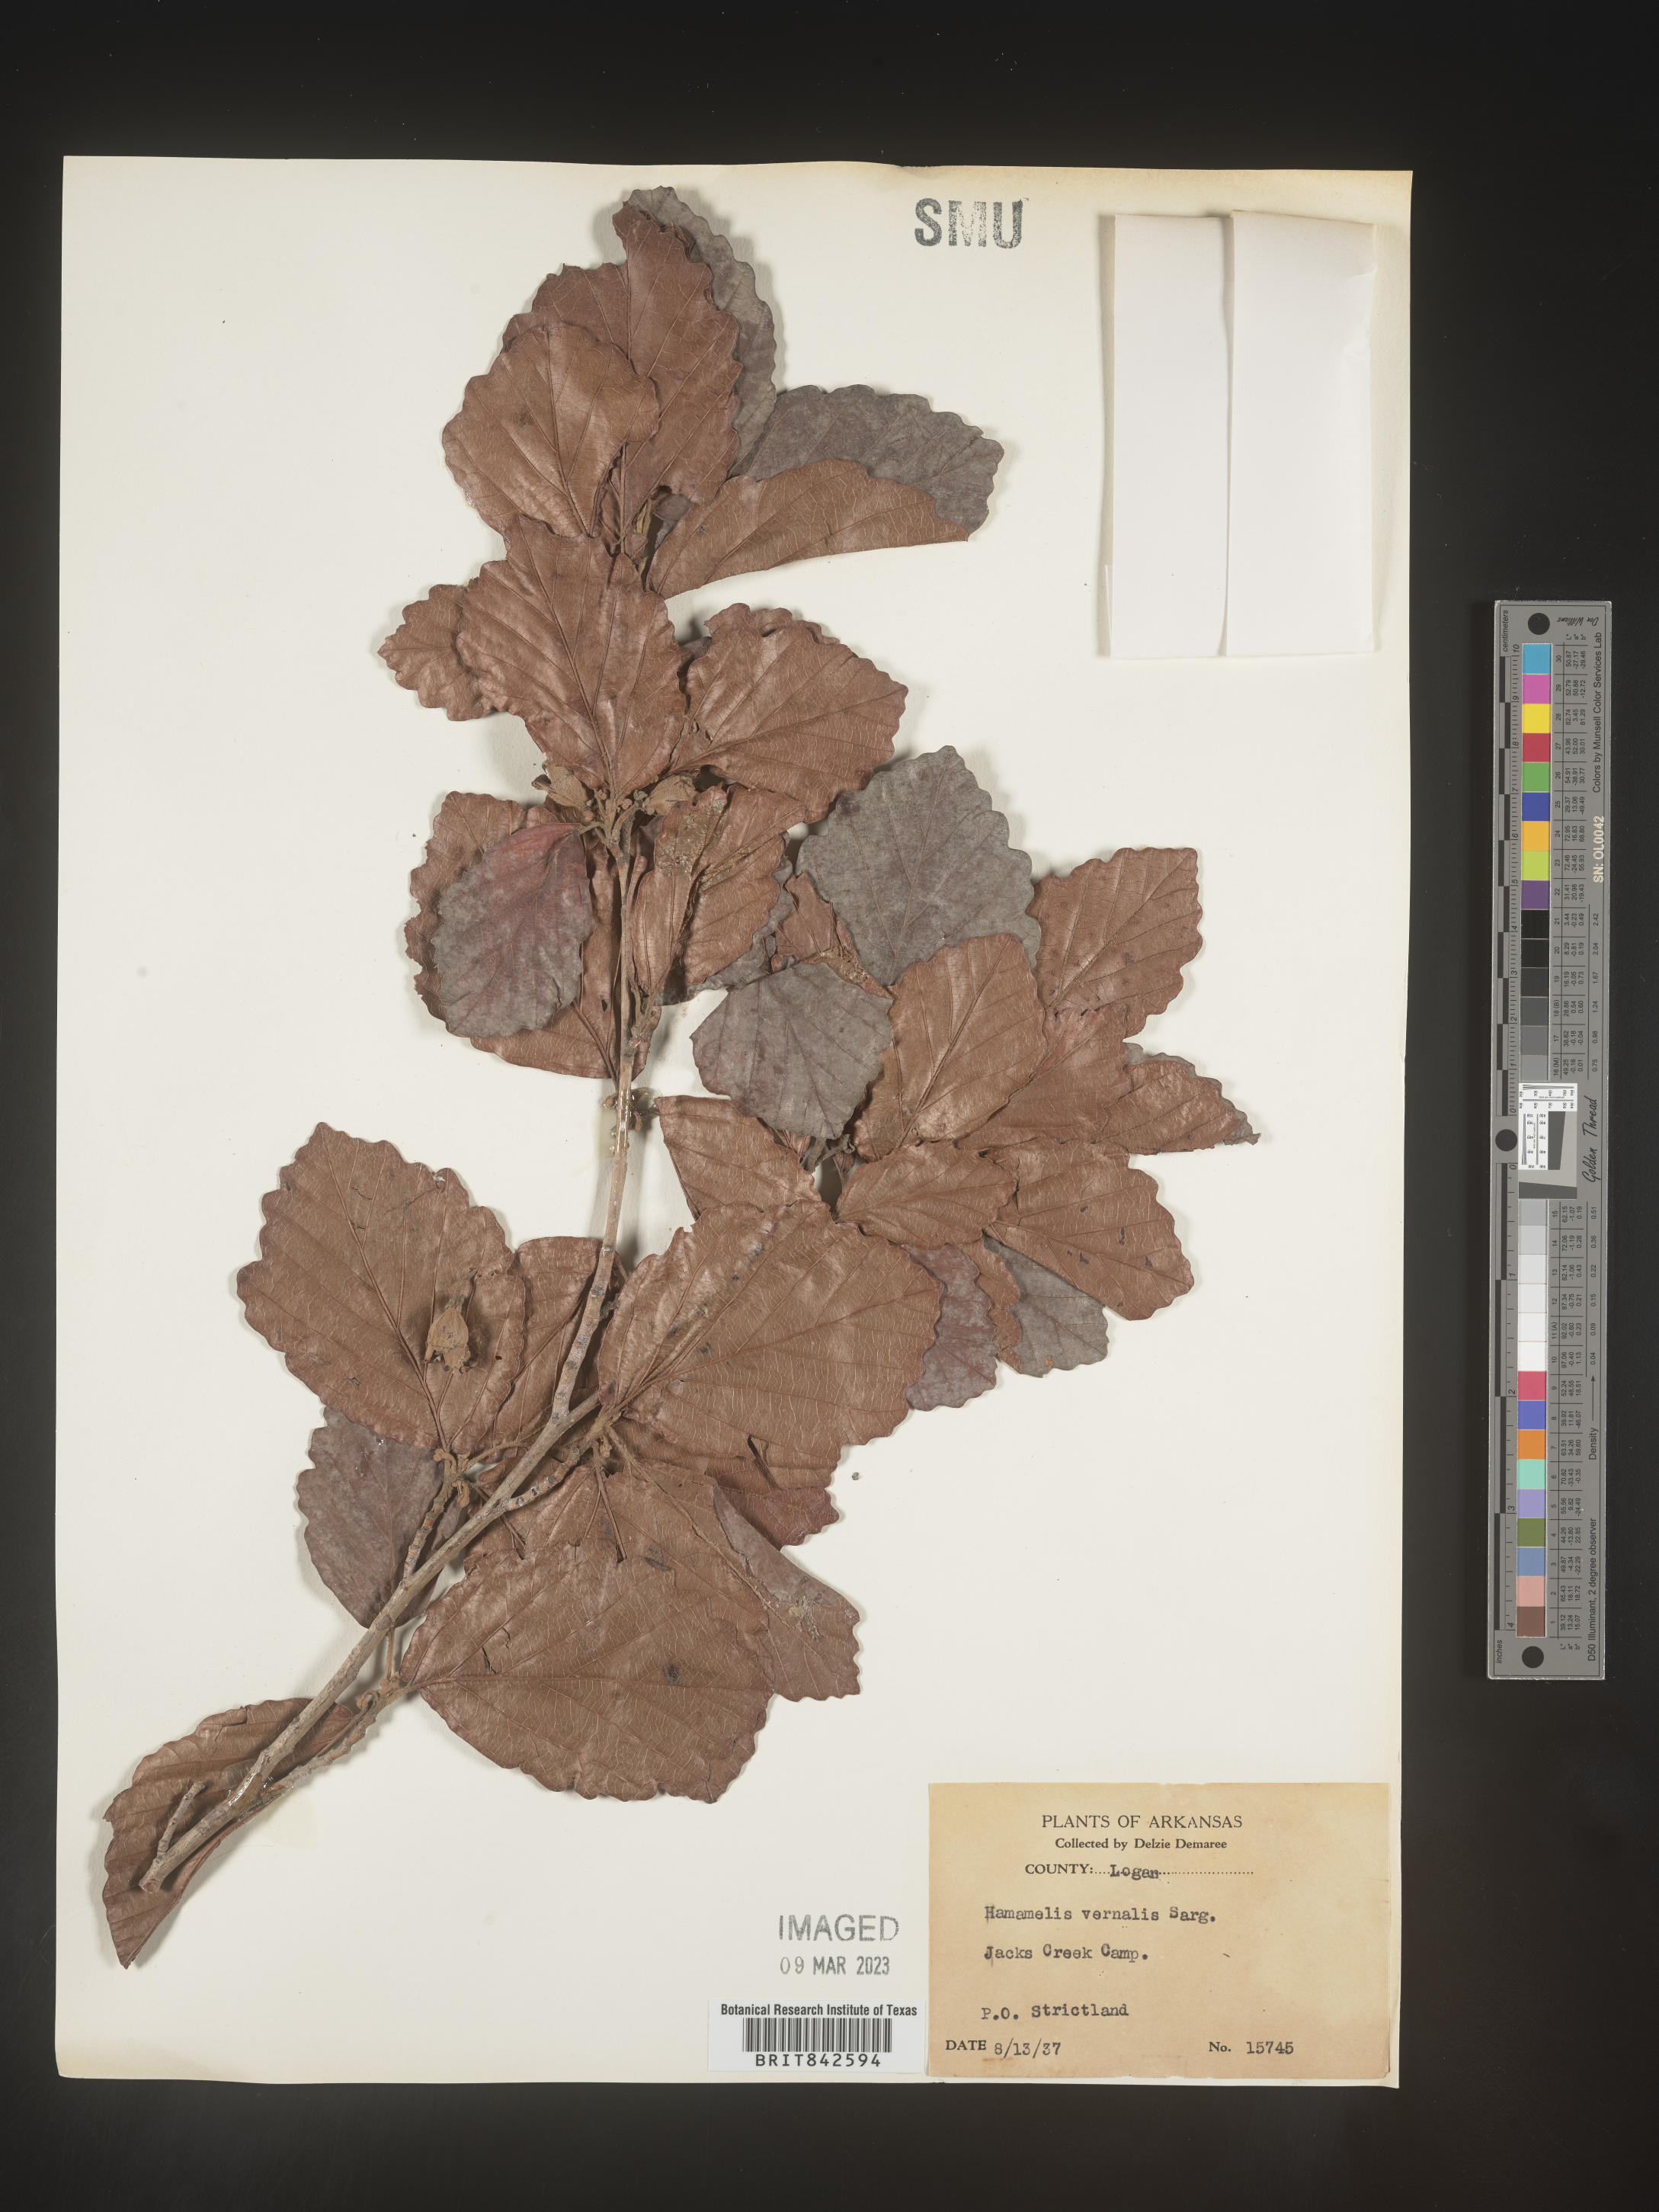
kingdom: Plantae
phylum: Tracheophyta
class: Magnoliopsida
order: Saxifragales
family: Hamamelidaceae
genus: Hamamelis
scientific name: Hamamelis vernalis
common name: Ozark witch-hazel
